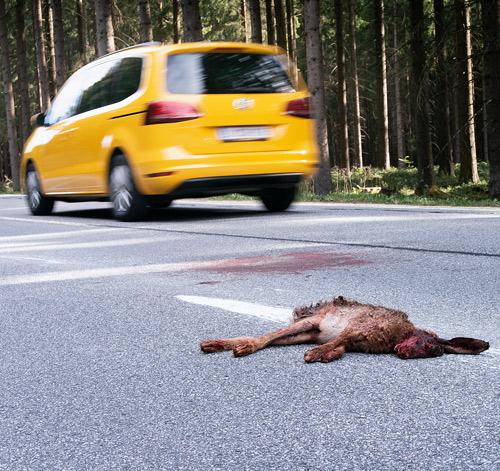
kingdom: Animalia
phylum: Chordata
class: Mammalia
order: Lagomorpha
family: Leporidae
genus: Lepus
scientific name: Lepus europaeus
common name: European hare
